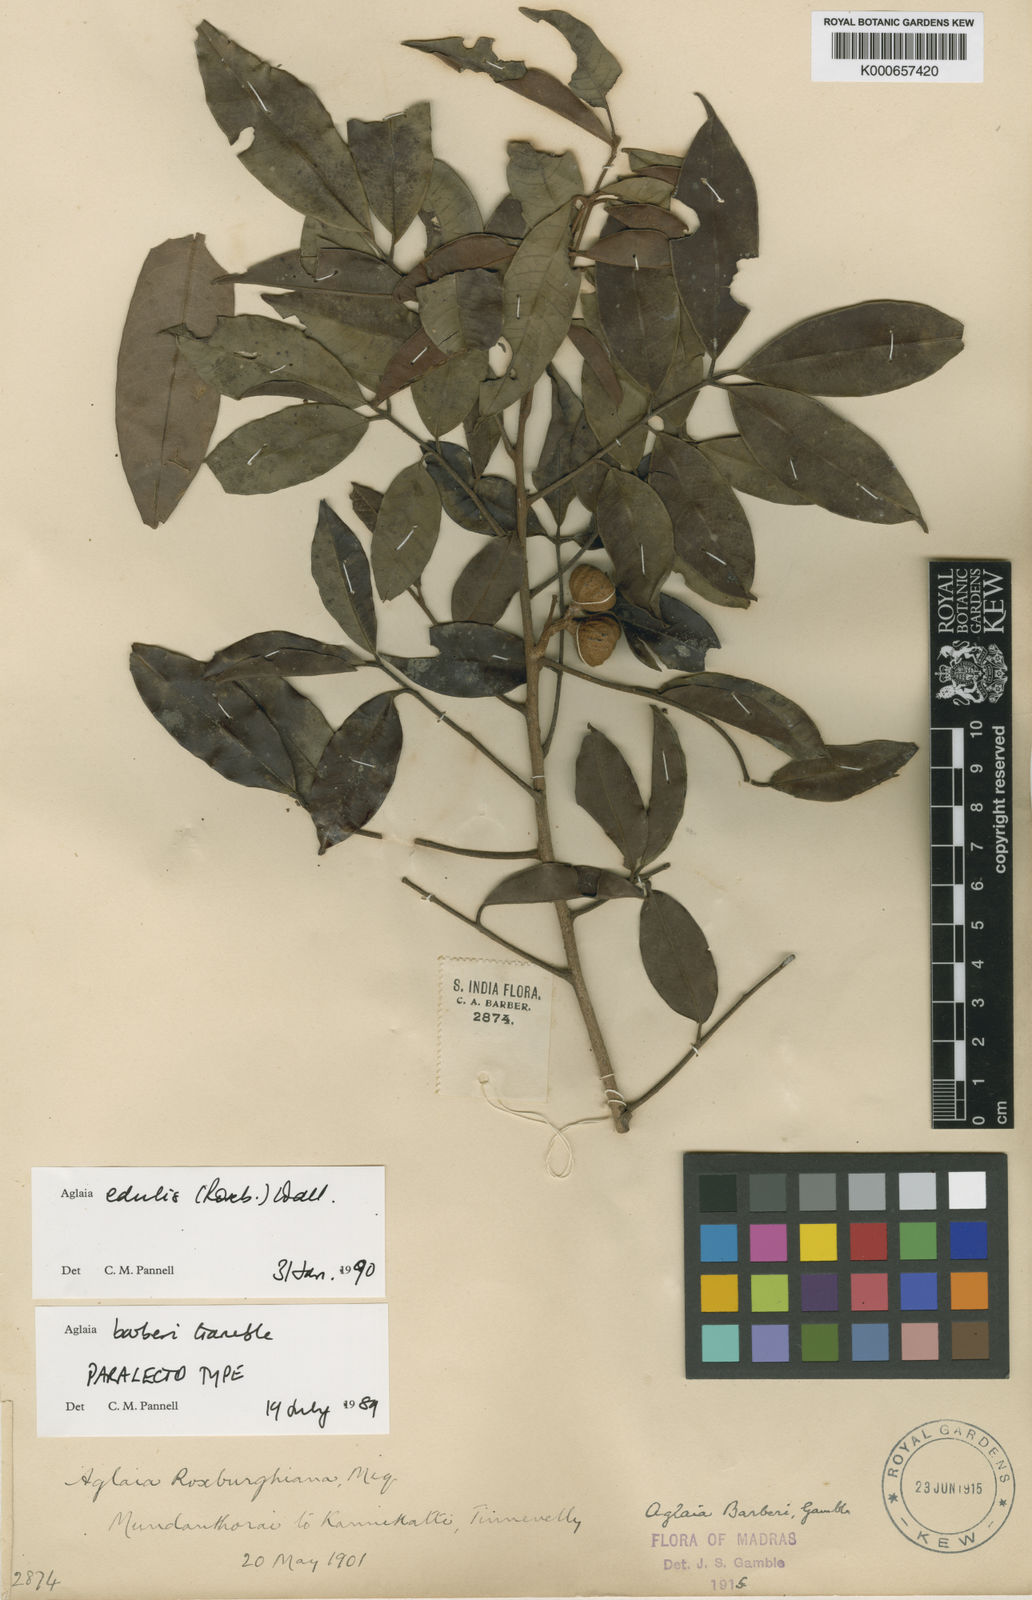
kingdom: Plantae
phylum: Tracheophyta
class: Magnoliopsida
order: Sapindales
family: Meliaceae
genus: Aglaia
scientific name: Aglaia edulis
